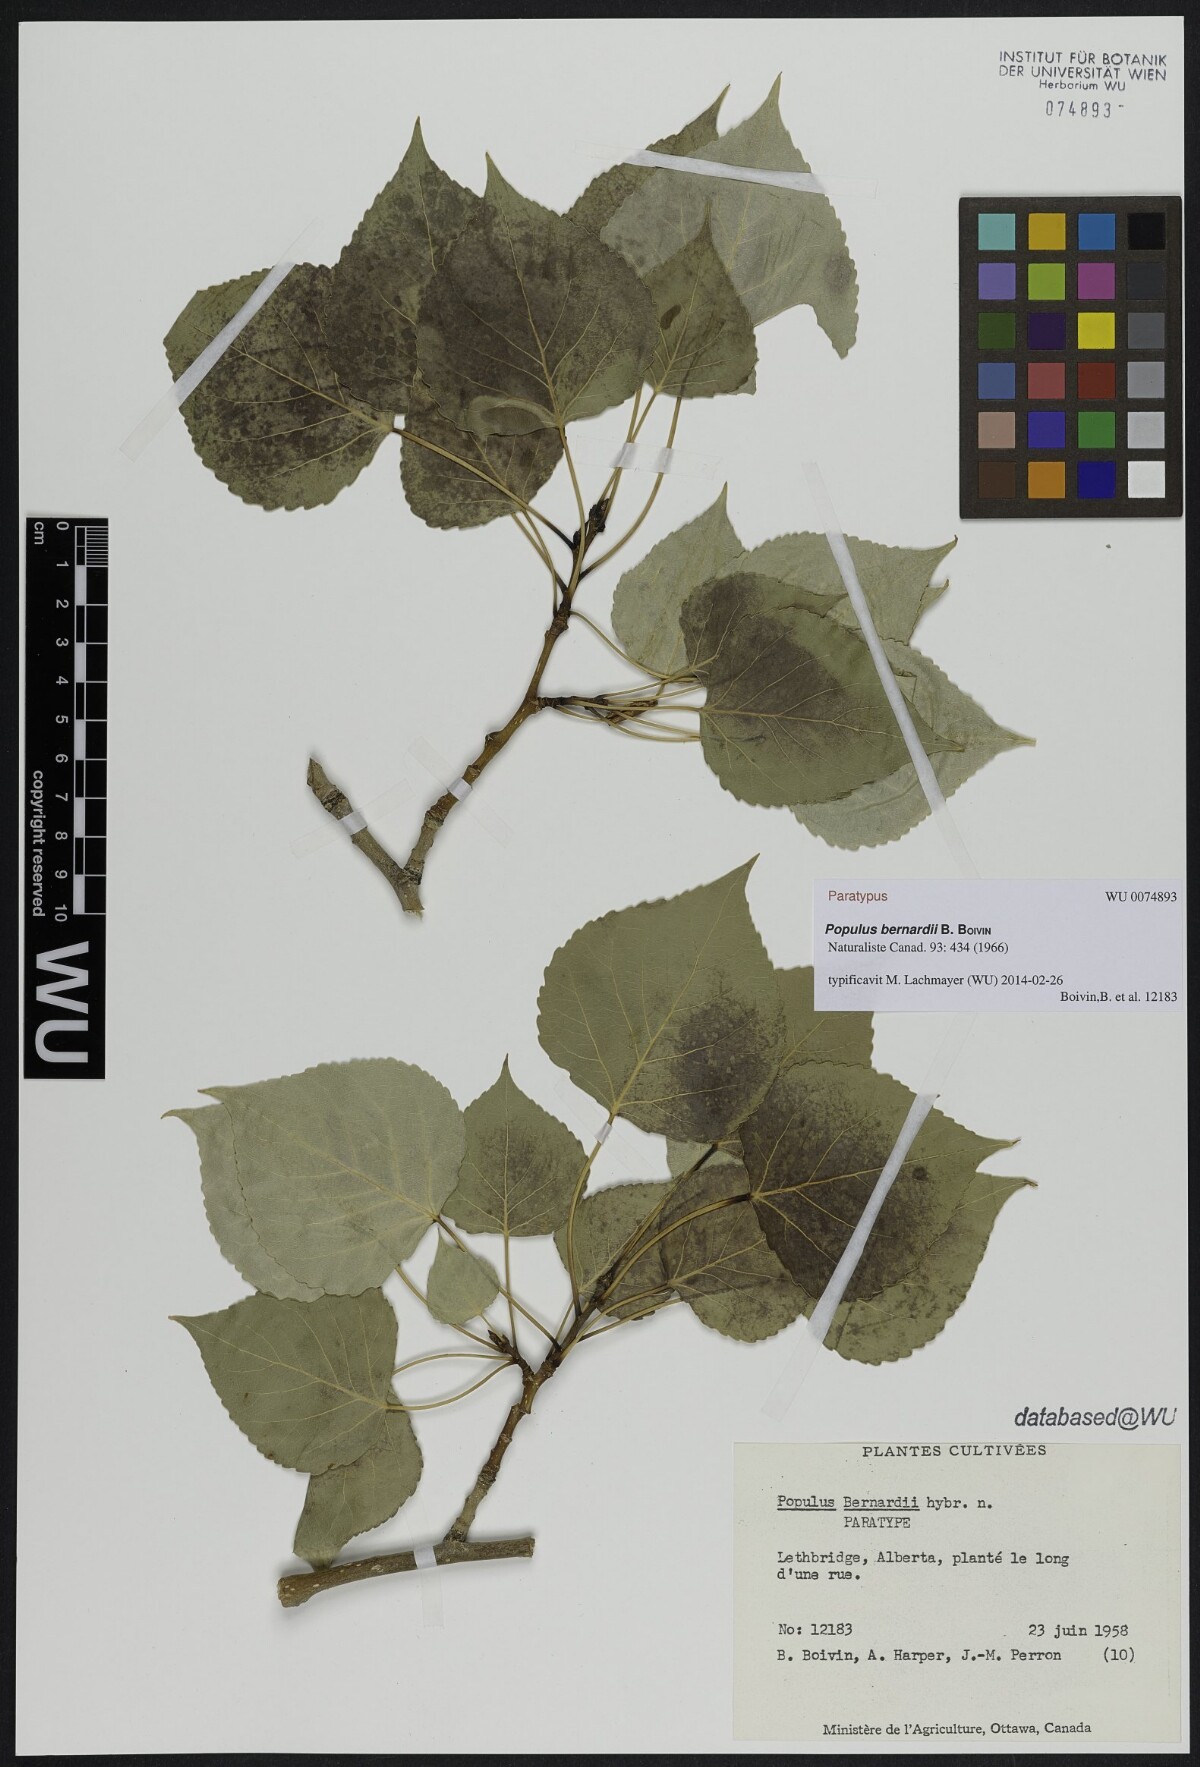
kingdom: Plantae
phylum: Tracheophyta
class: Magnoliopsida
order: Malpighiales
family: Salicaceae
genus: Populus
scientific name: Populus jackii
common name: Balm-of-gilead
